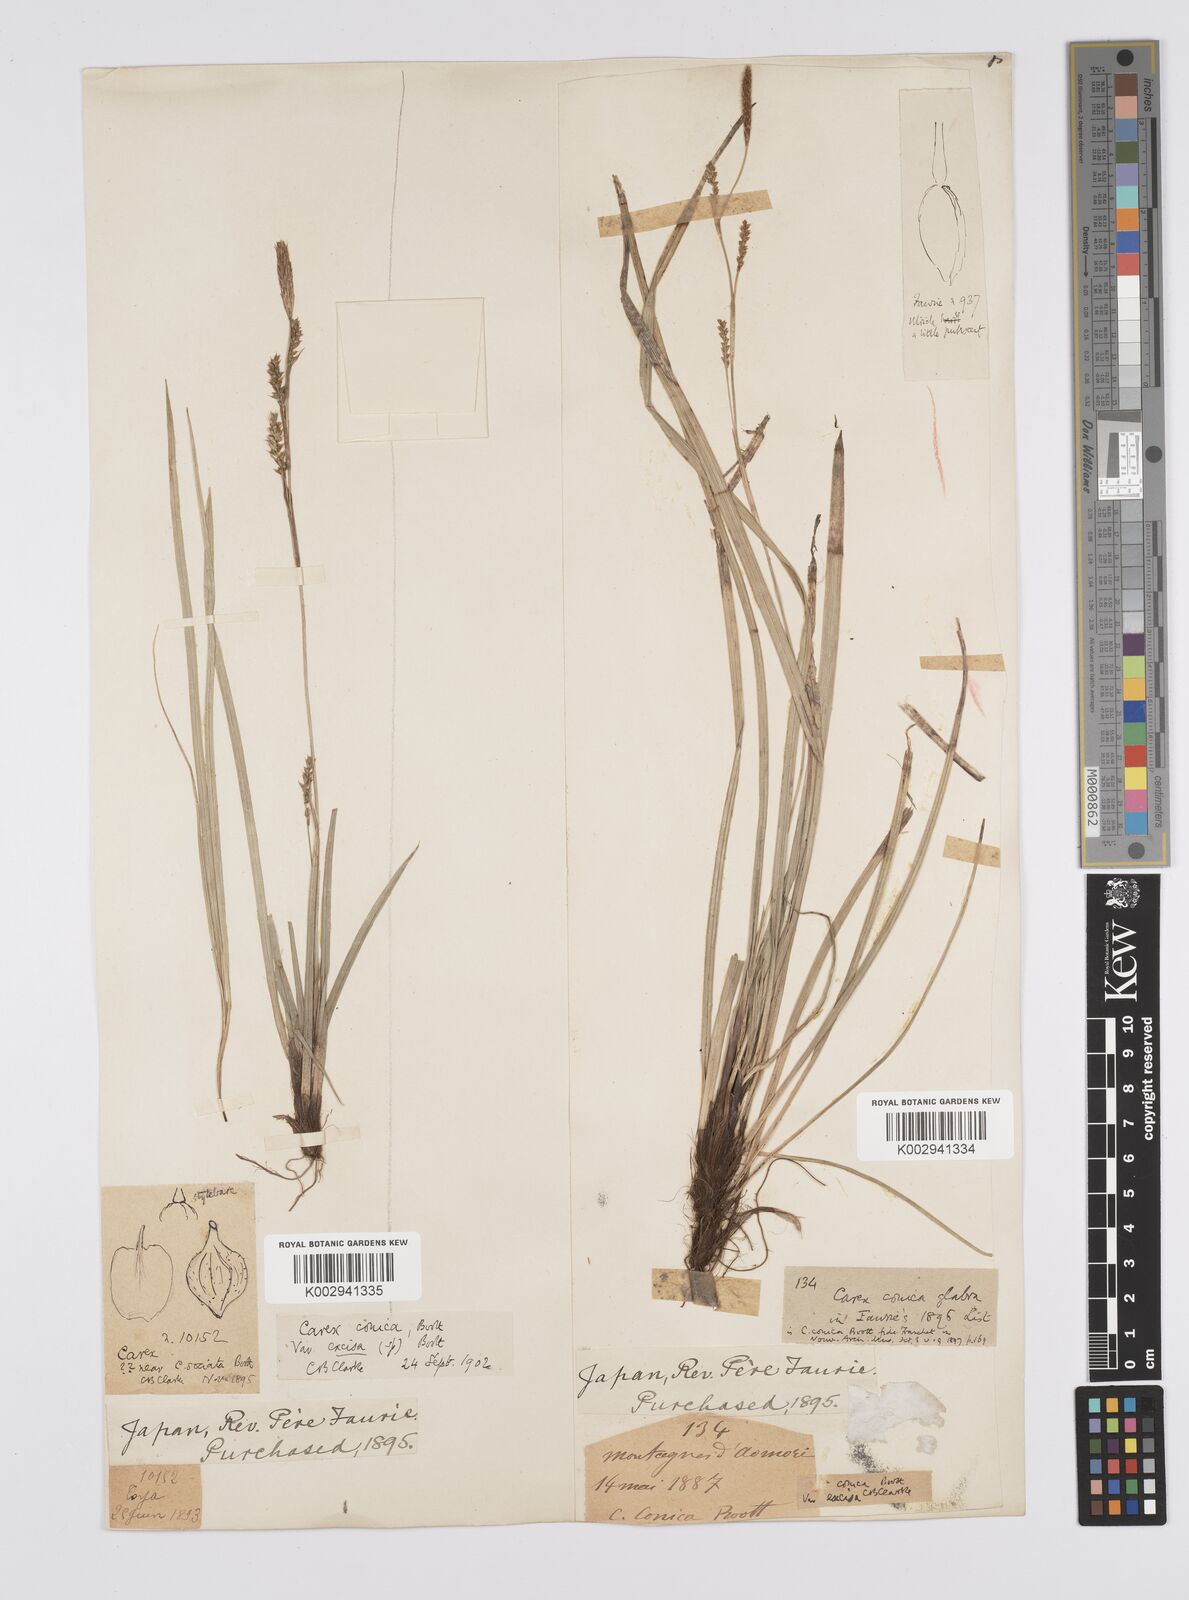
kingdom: Plantae
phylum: Tracheophyta
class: Liliopsida
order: Poales
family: Cyperaceae
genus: Carex
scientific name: Carex conica
